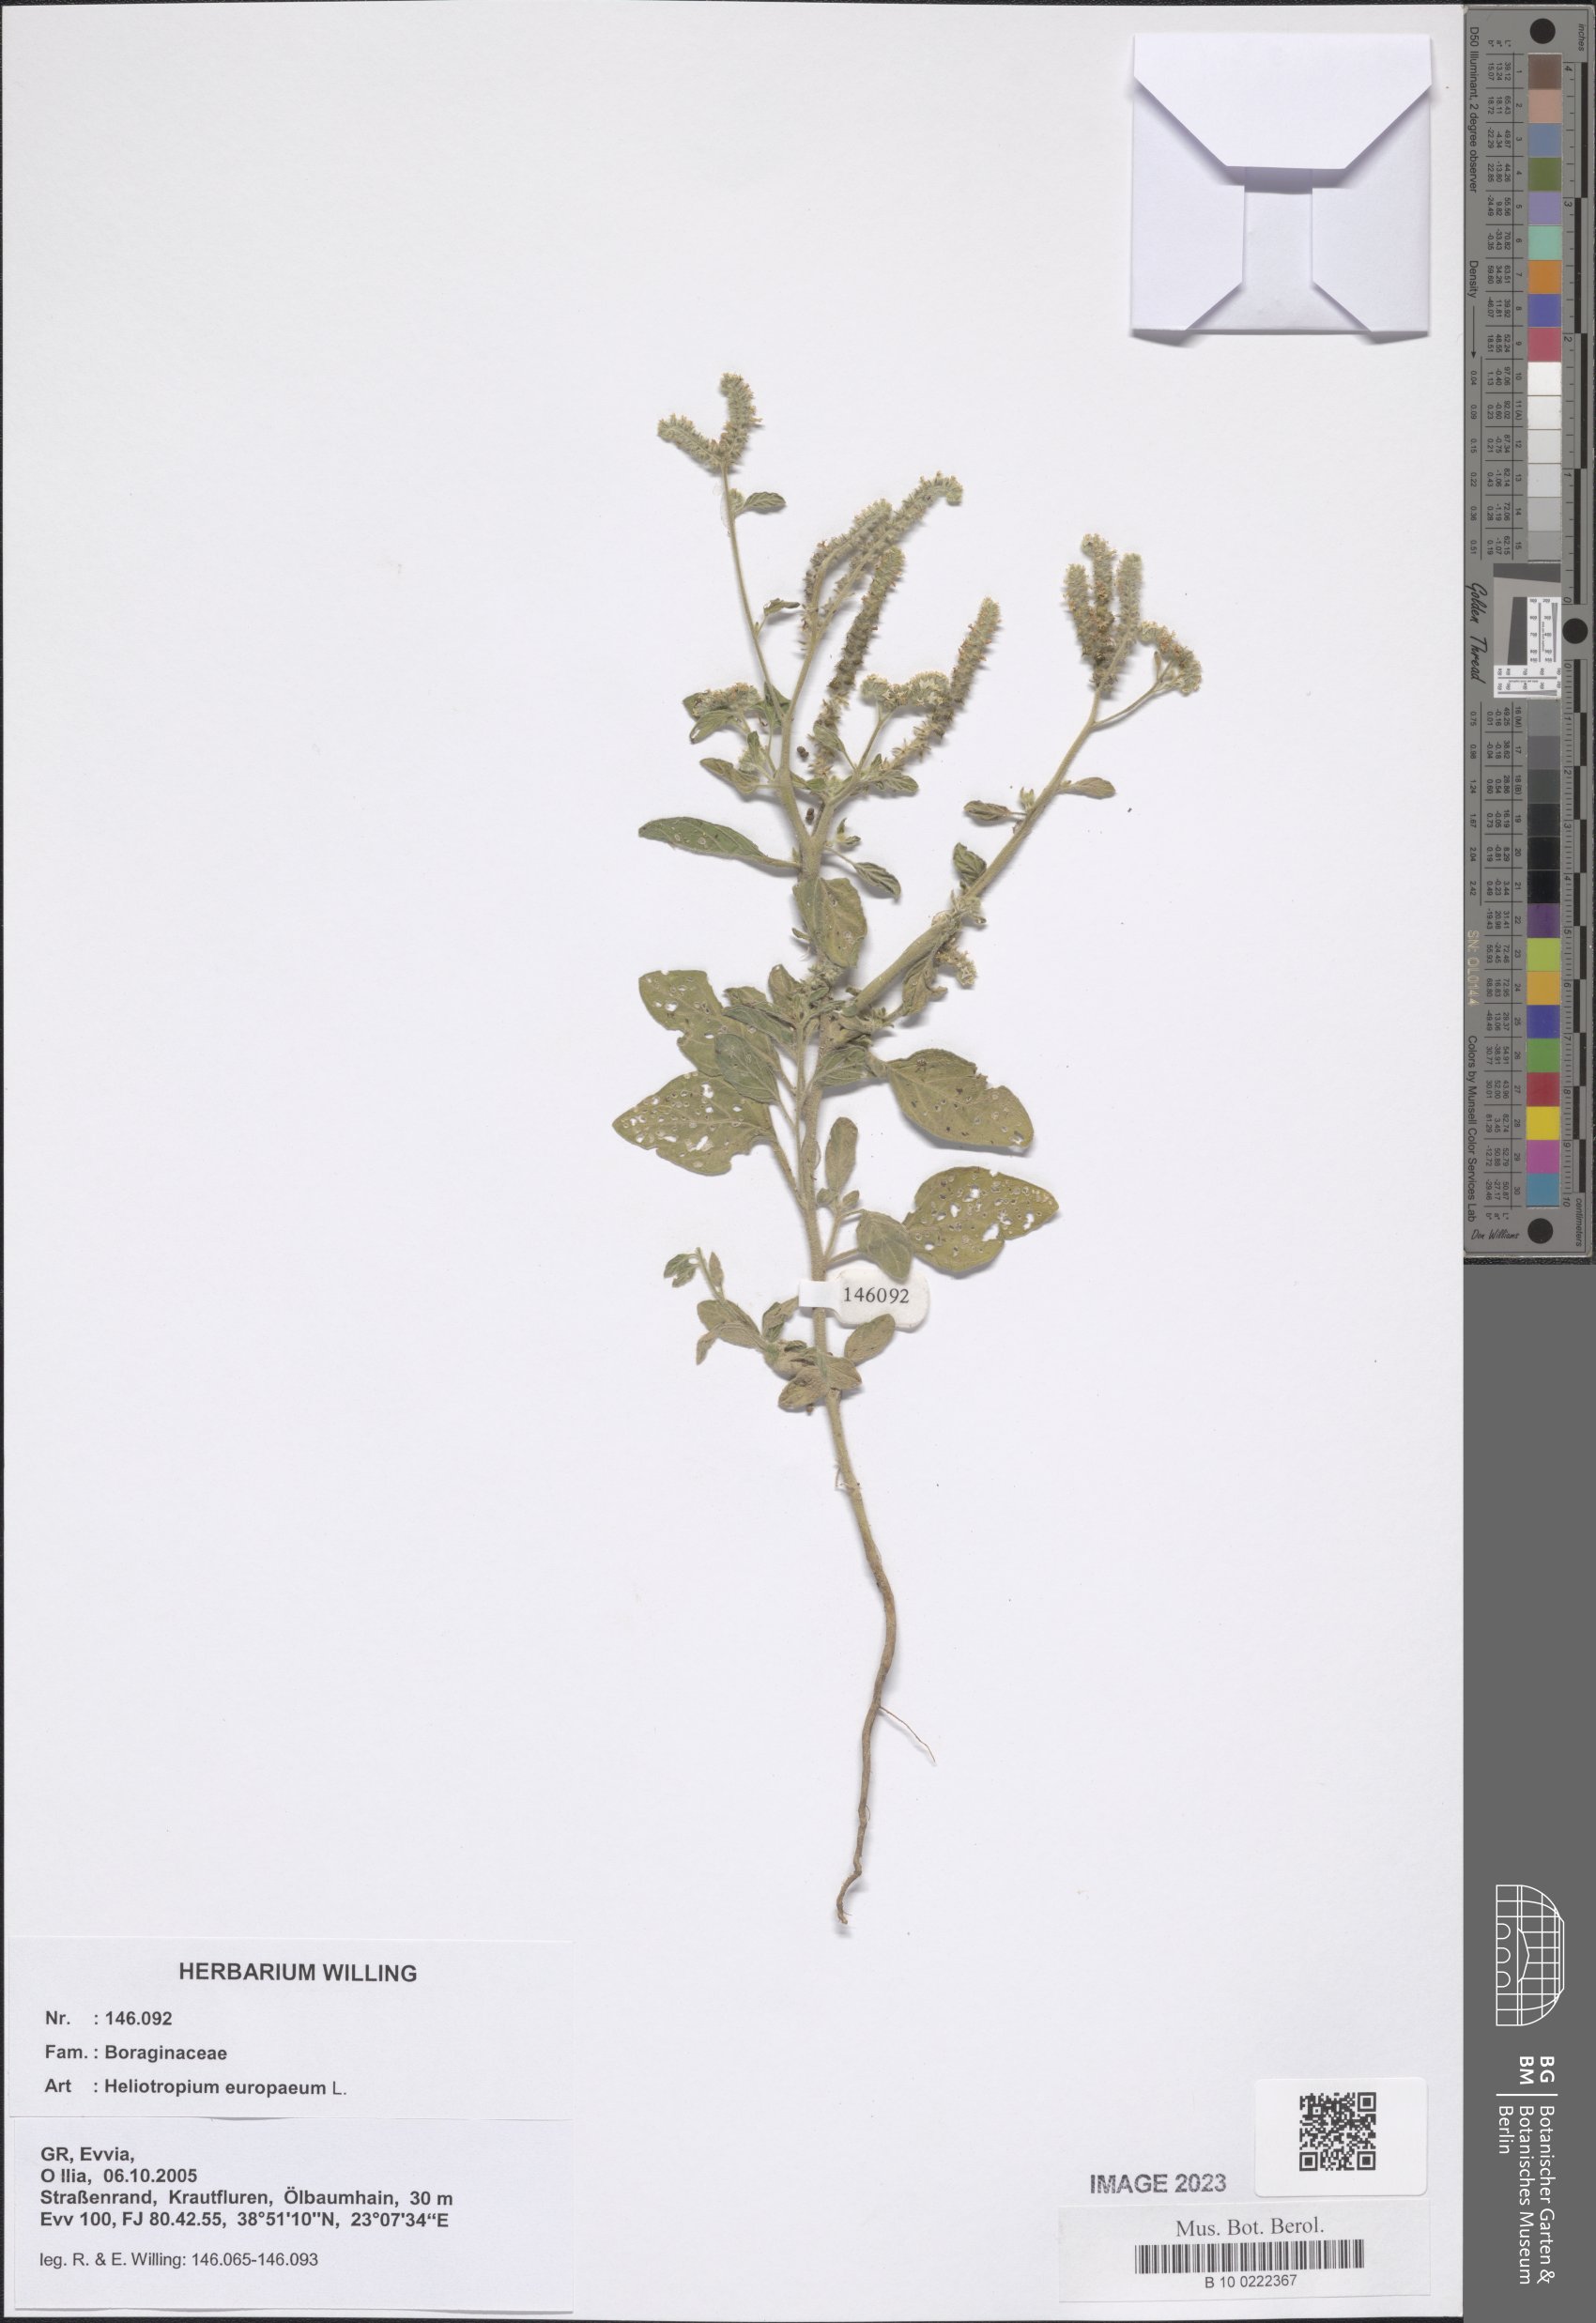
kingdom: Plantae
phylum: Tracheophyta
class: Magnoliopsida
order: Boraginales
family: Heliotropiaceae
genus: Heliotropium
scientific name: Heliotropium europaeum
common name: European heliotrope
